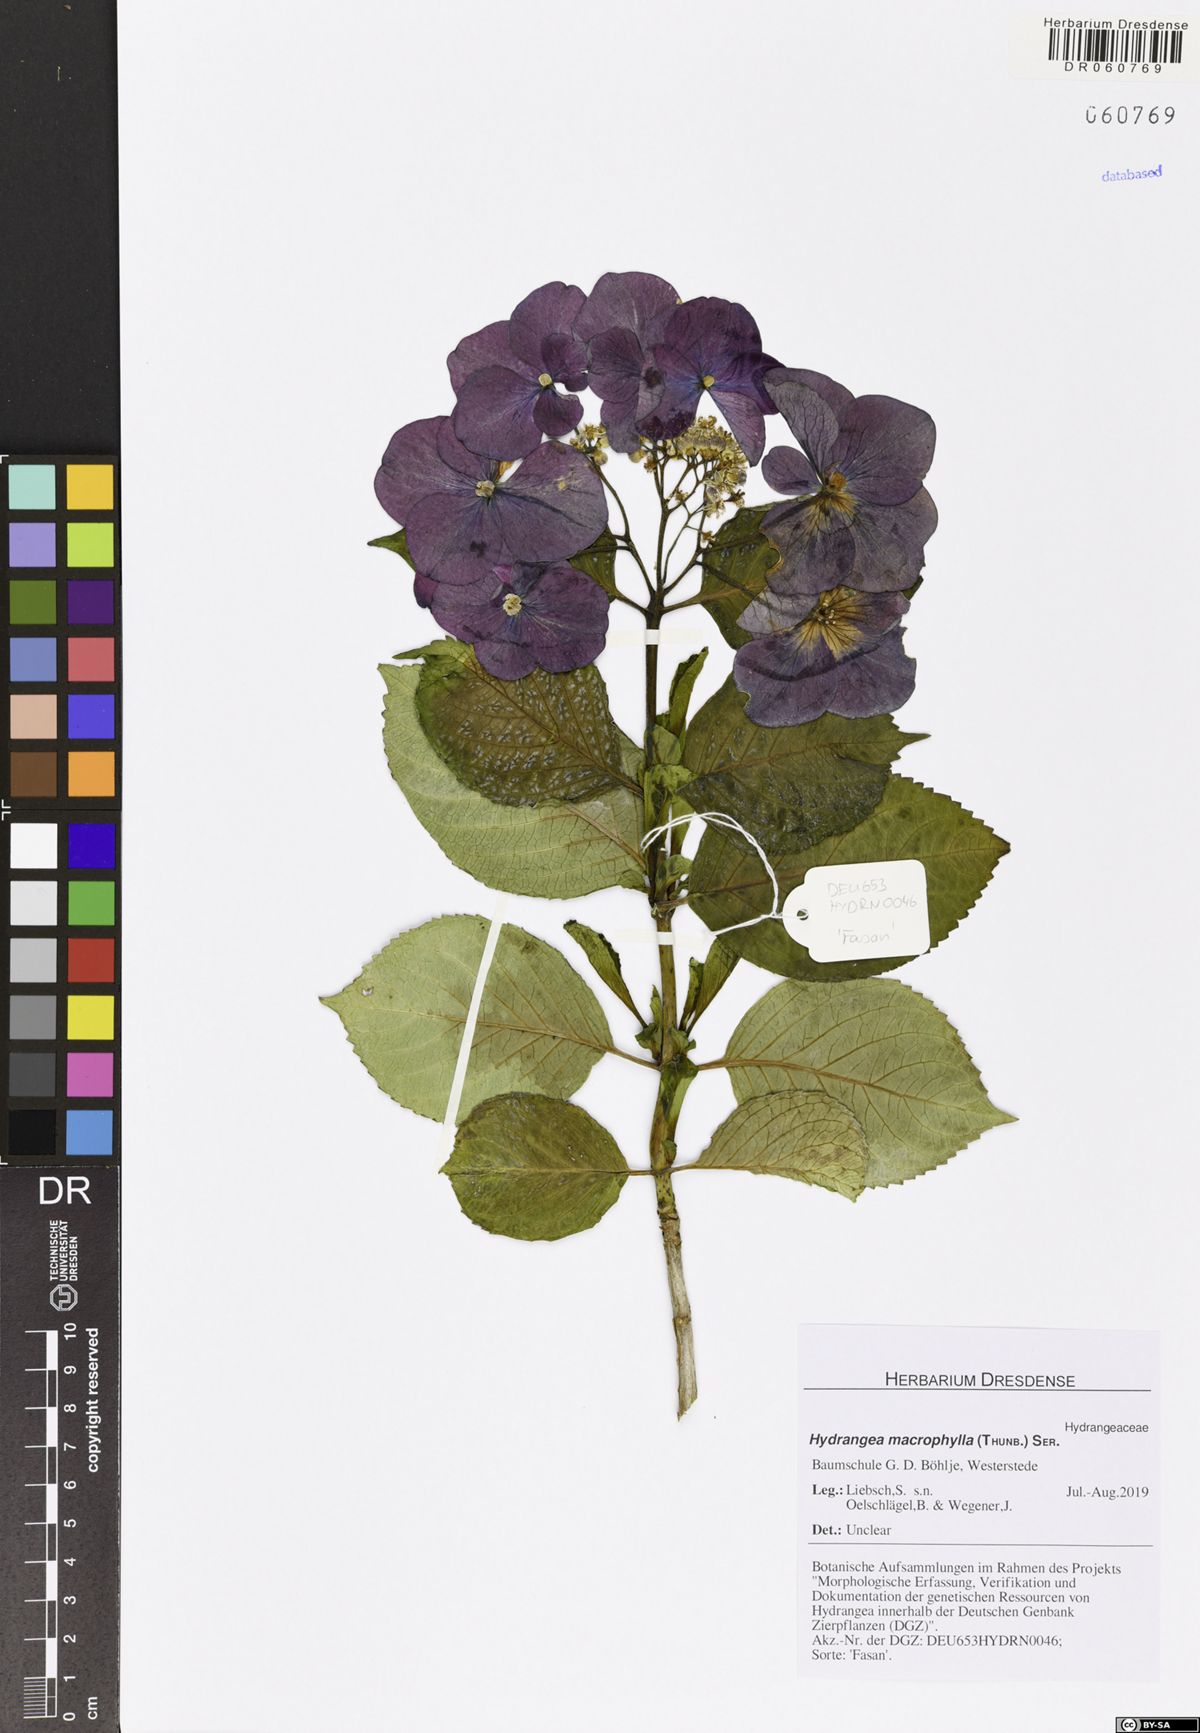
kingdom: Plantae
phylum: Tracheophyta
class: Magnoliopsida
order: Cornales
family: Hydrangeaceae
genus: Hydrangea
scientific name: Hydrangea macrophylla
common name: Hydrangea
